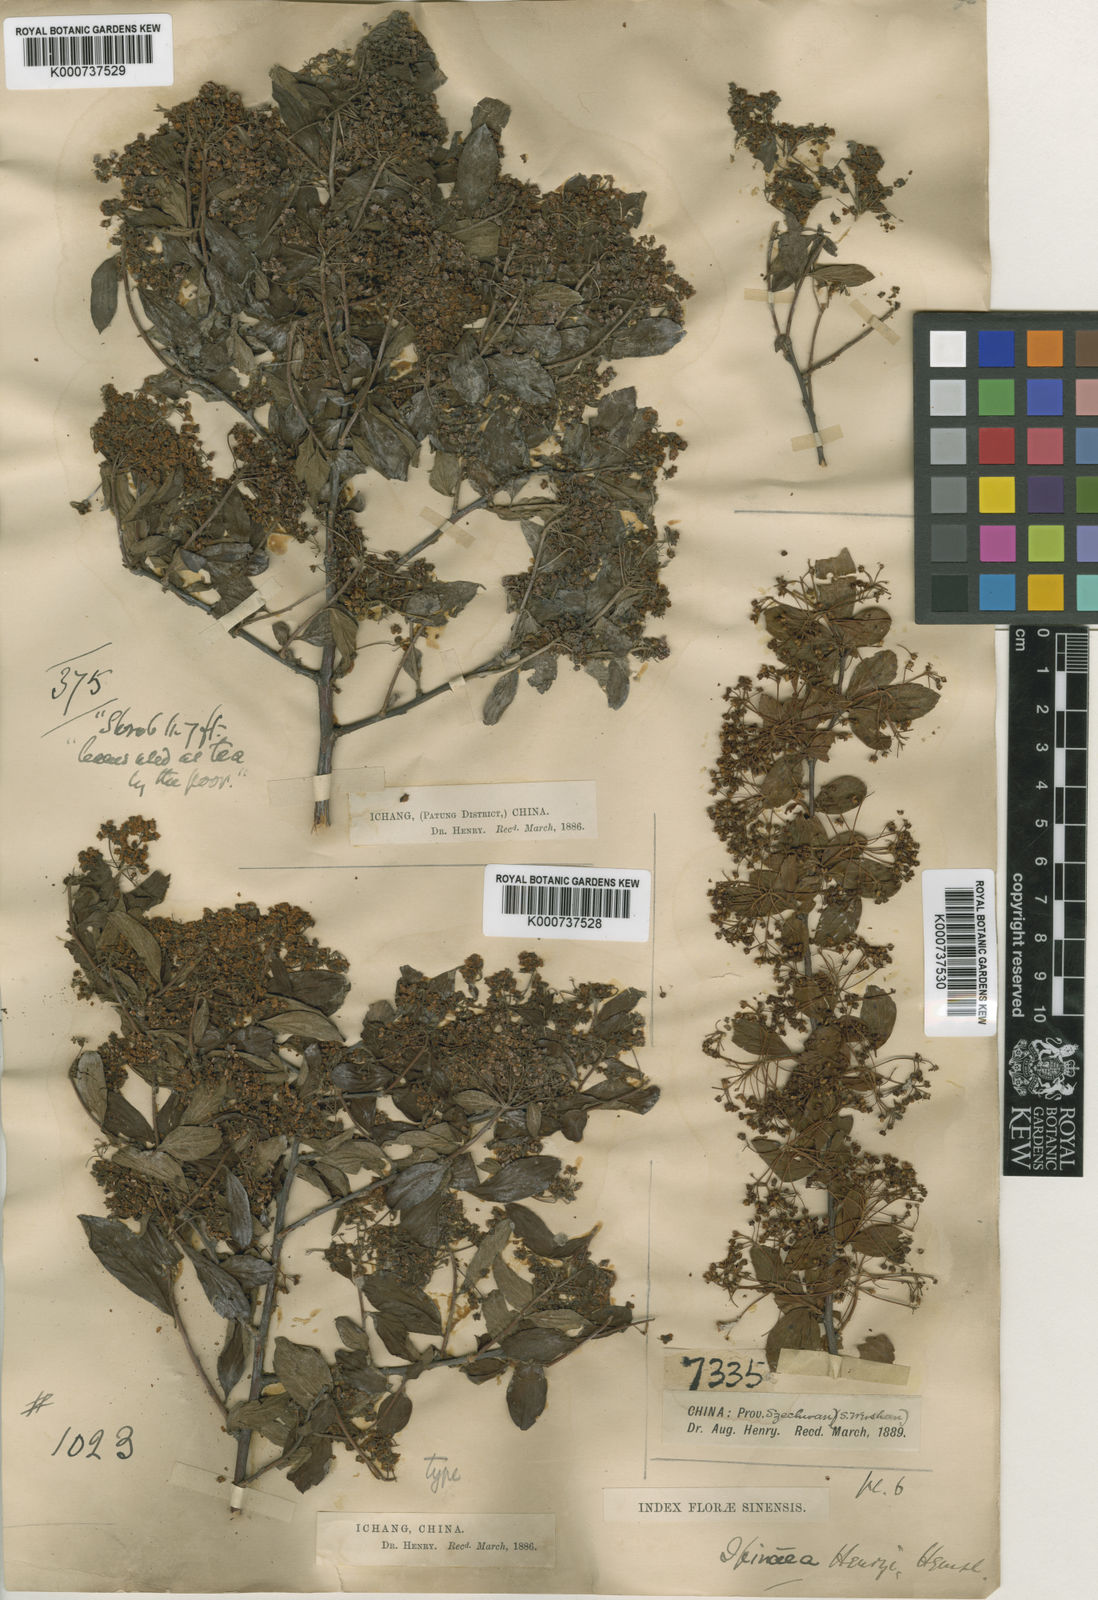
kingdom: Plantae
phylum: Tracheophyta
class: Magnoliopsida
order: Rosales
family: Rosaceae
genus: Spiraea
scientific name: Spiraea henryi
